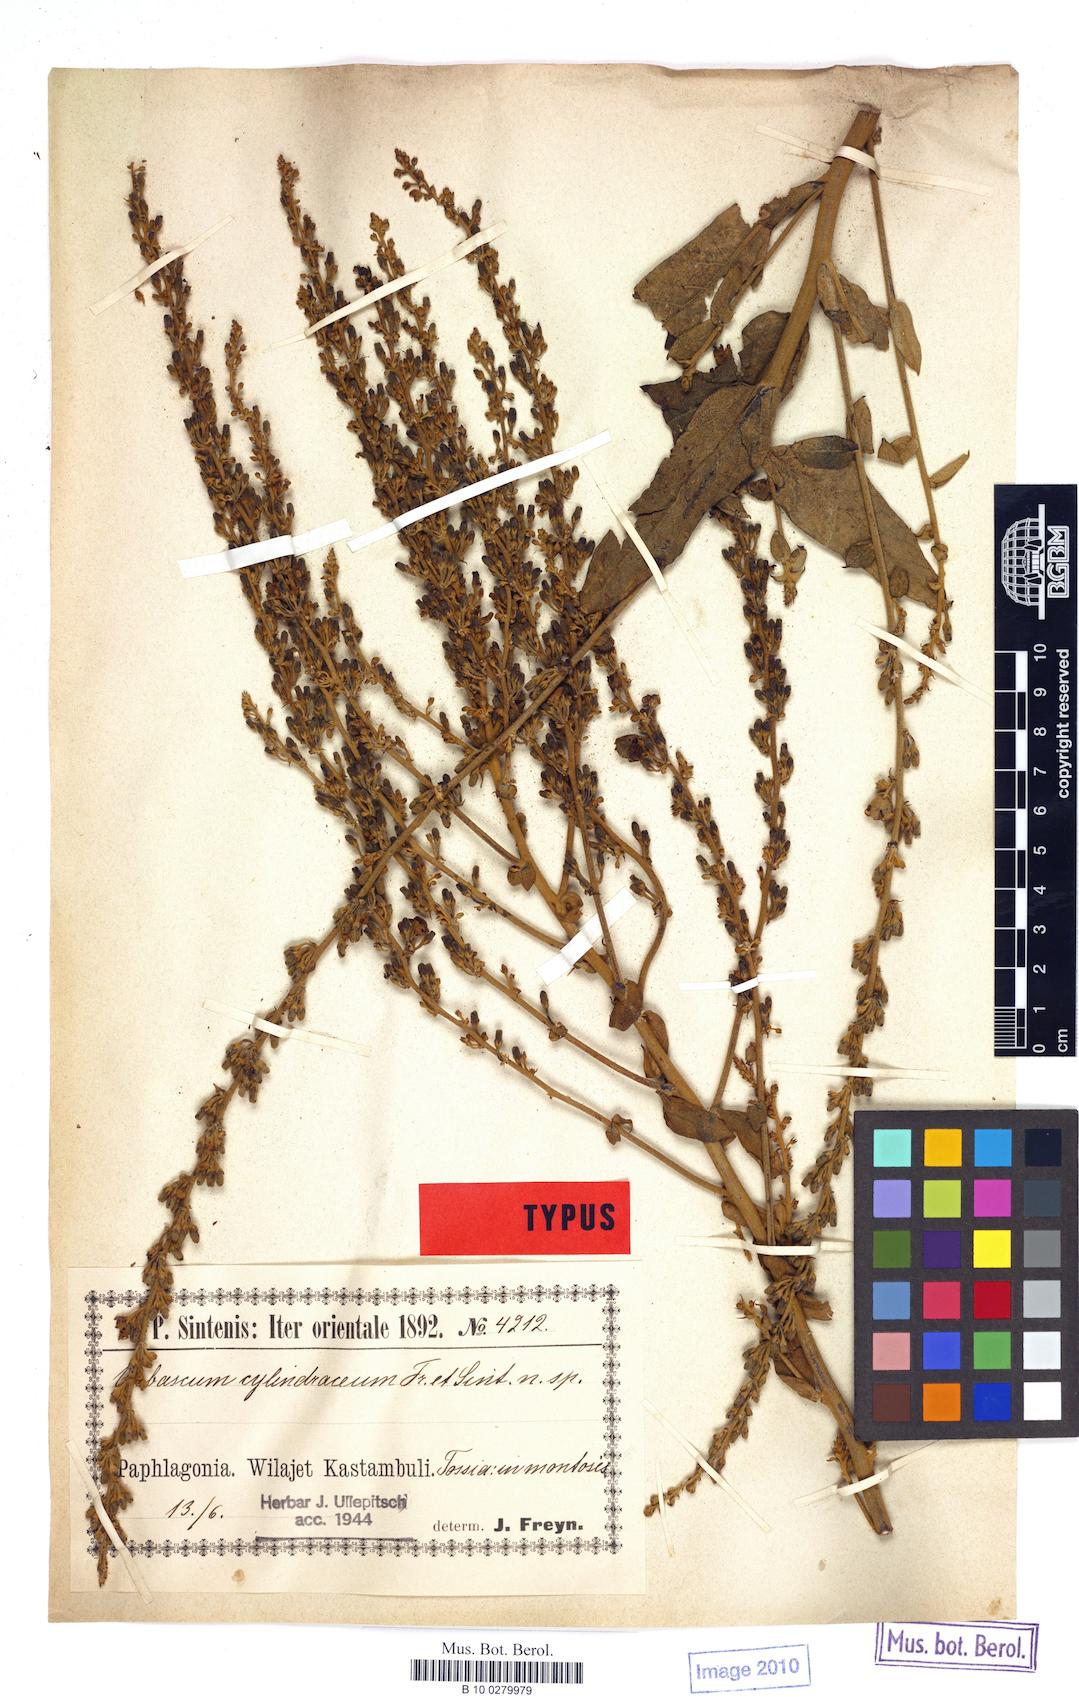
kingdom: Plantae
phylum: Tracheophyta
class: Magnoliopsida
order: Lamiales
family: Scrophulariaceae
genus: Verbascum
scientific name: Verbascum cheiranthifollum
